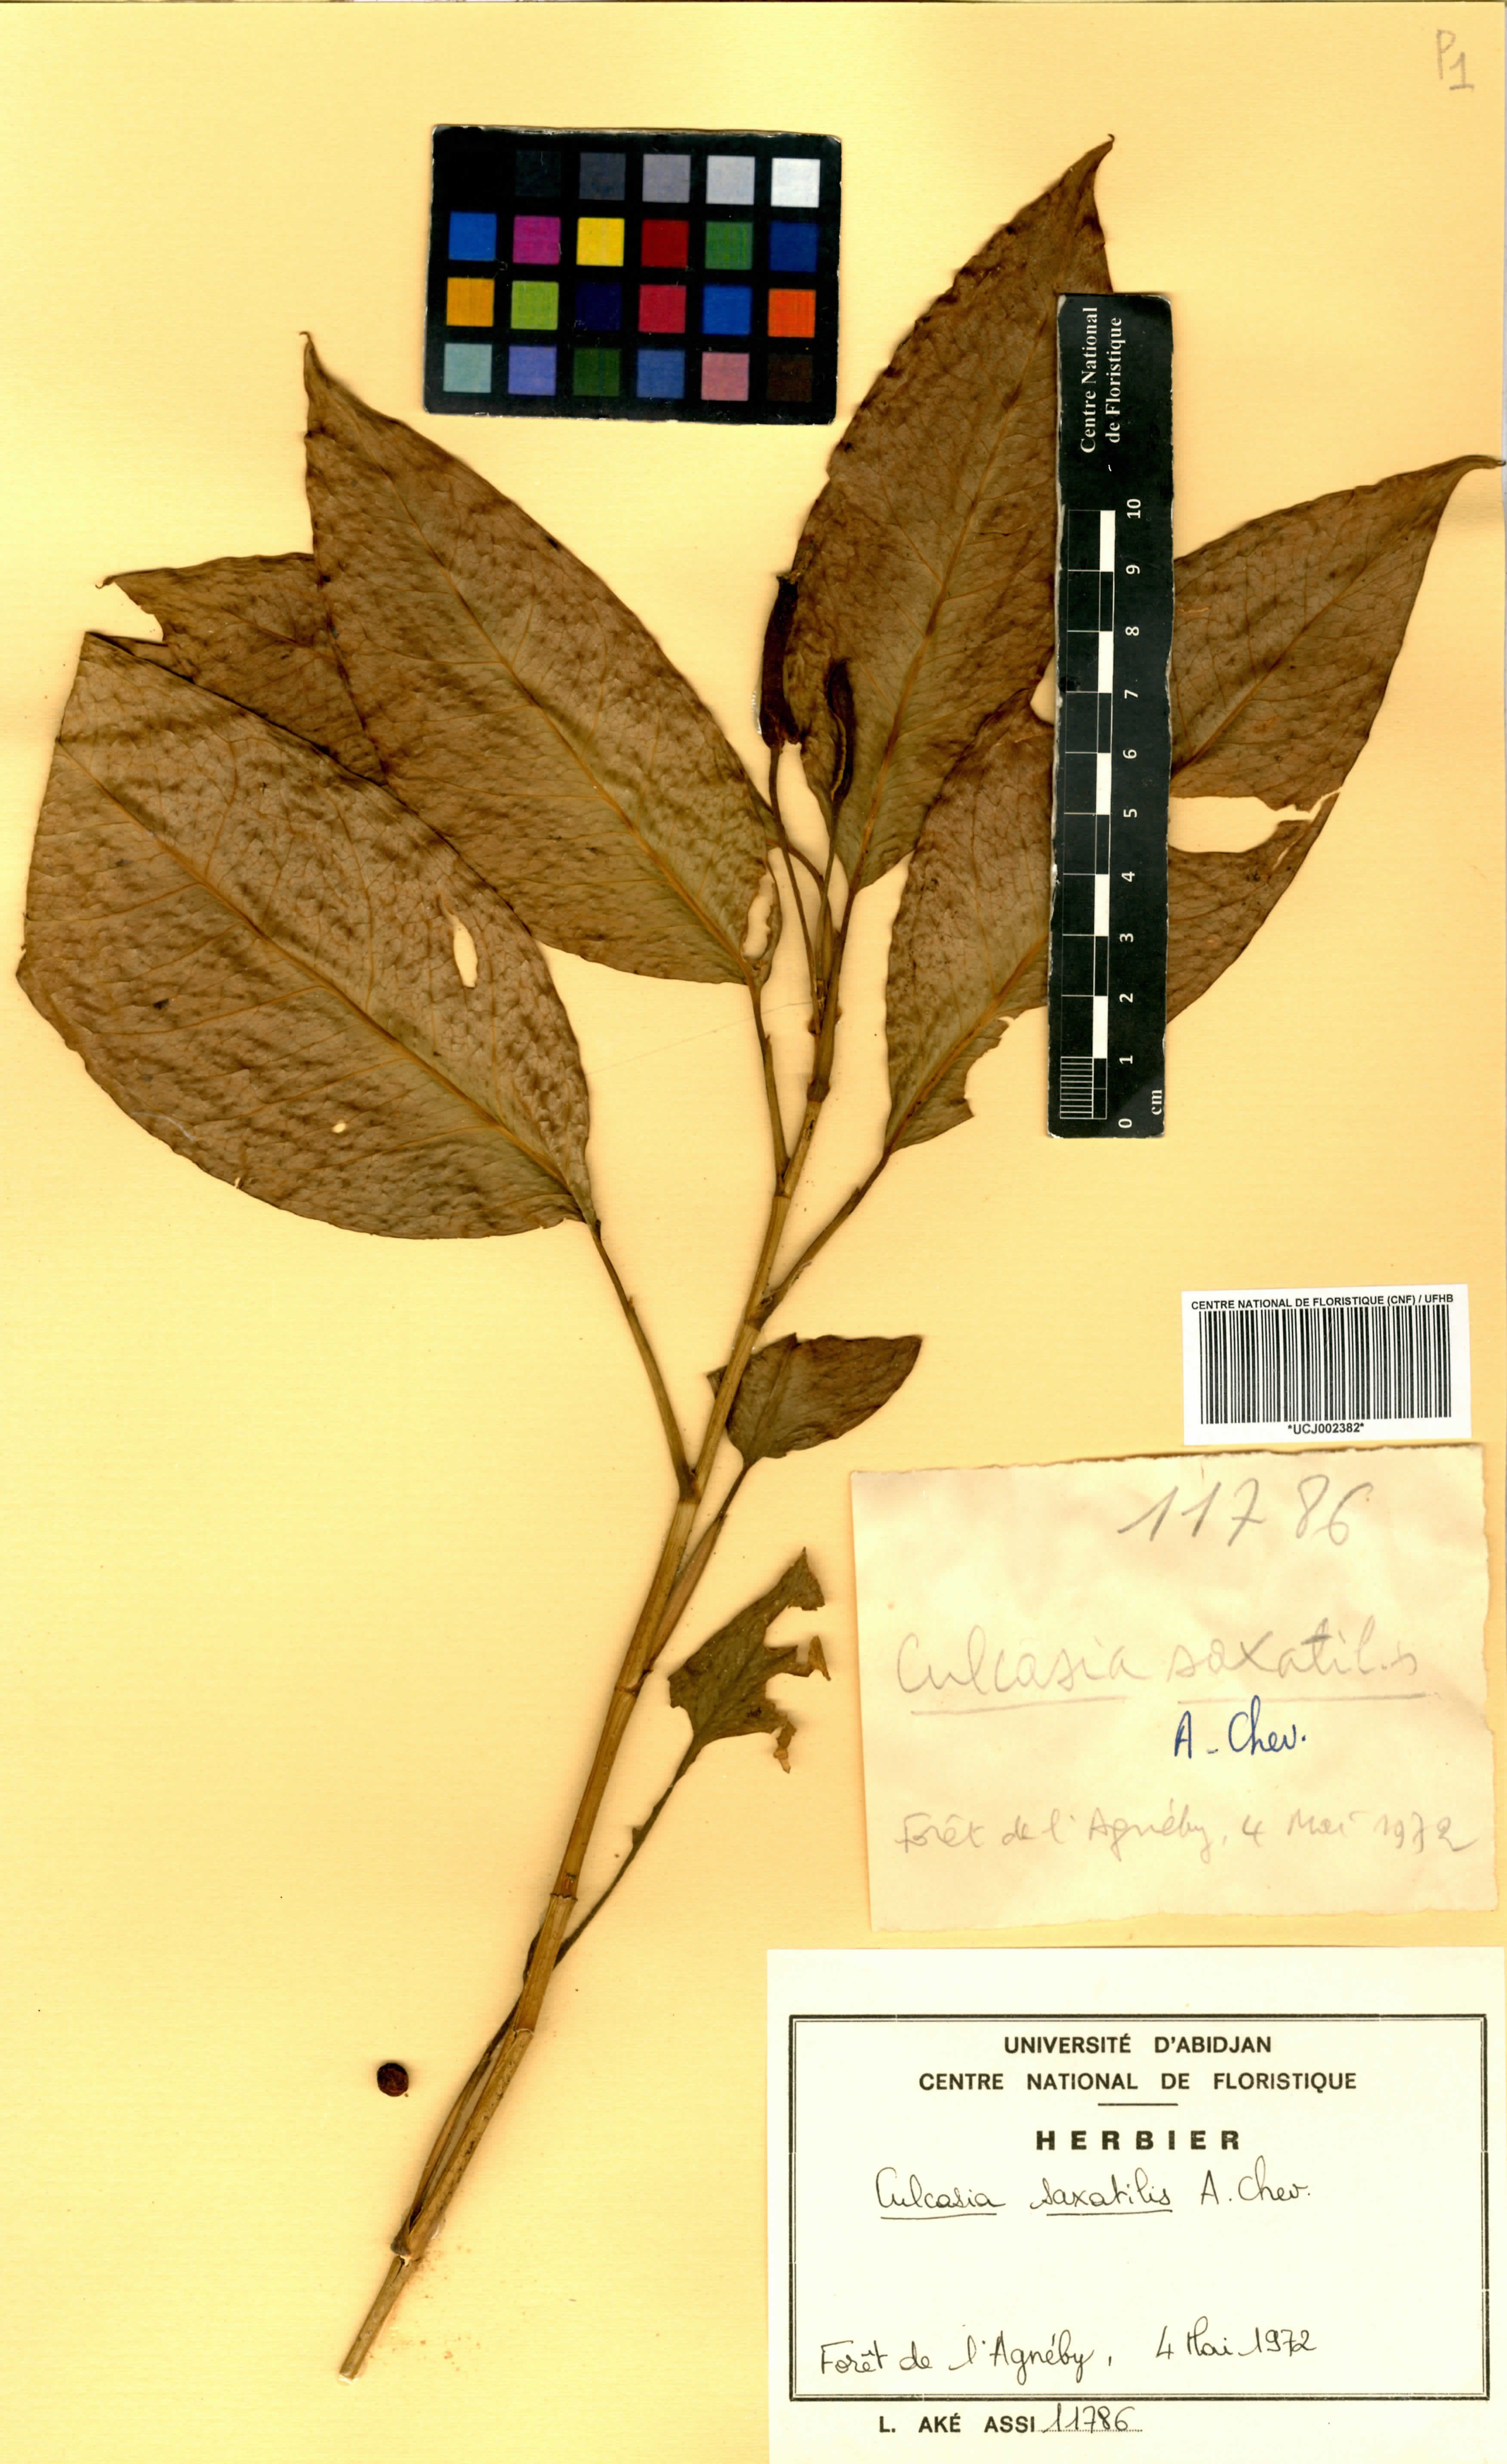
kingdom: Plantae
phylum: Tracheophyta
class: Liliopsida
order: Alismatales
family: Araceae
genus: Culcasia
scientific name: Culcasia scandens
